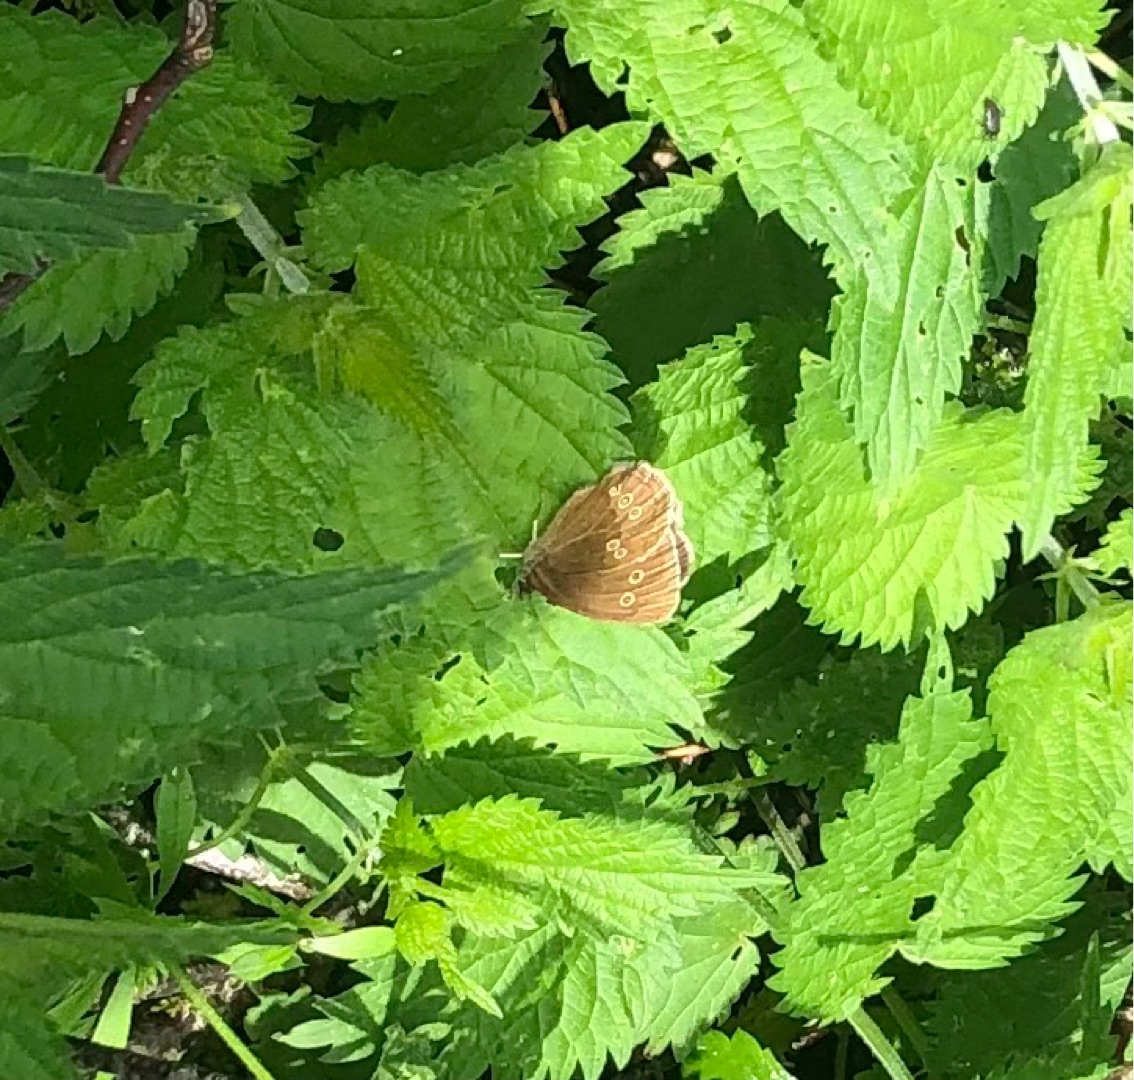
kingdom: Animalia
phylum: Arthropoda
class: Insecta
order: Lepidoptera
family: Nymphalidae
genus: Aphantopus
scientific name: Aphantopus hyperantus
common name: Engrandøje
